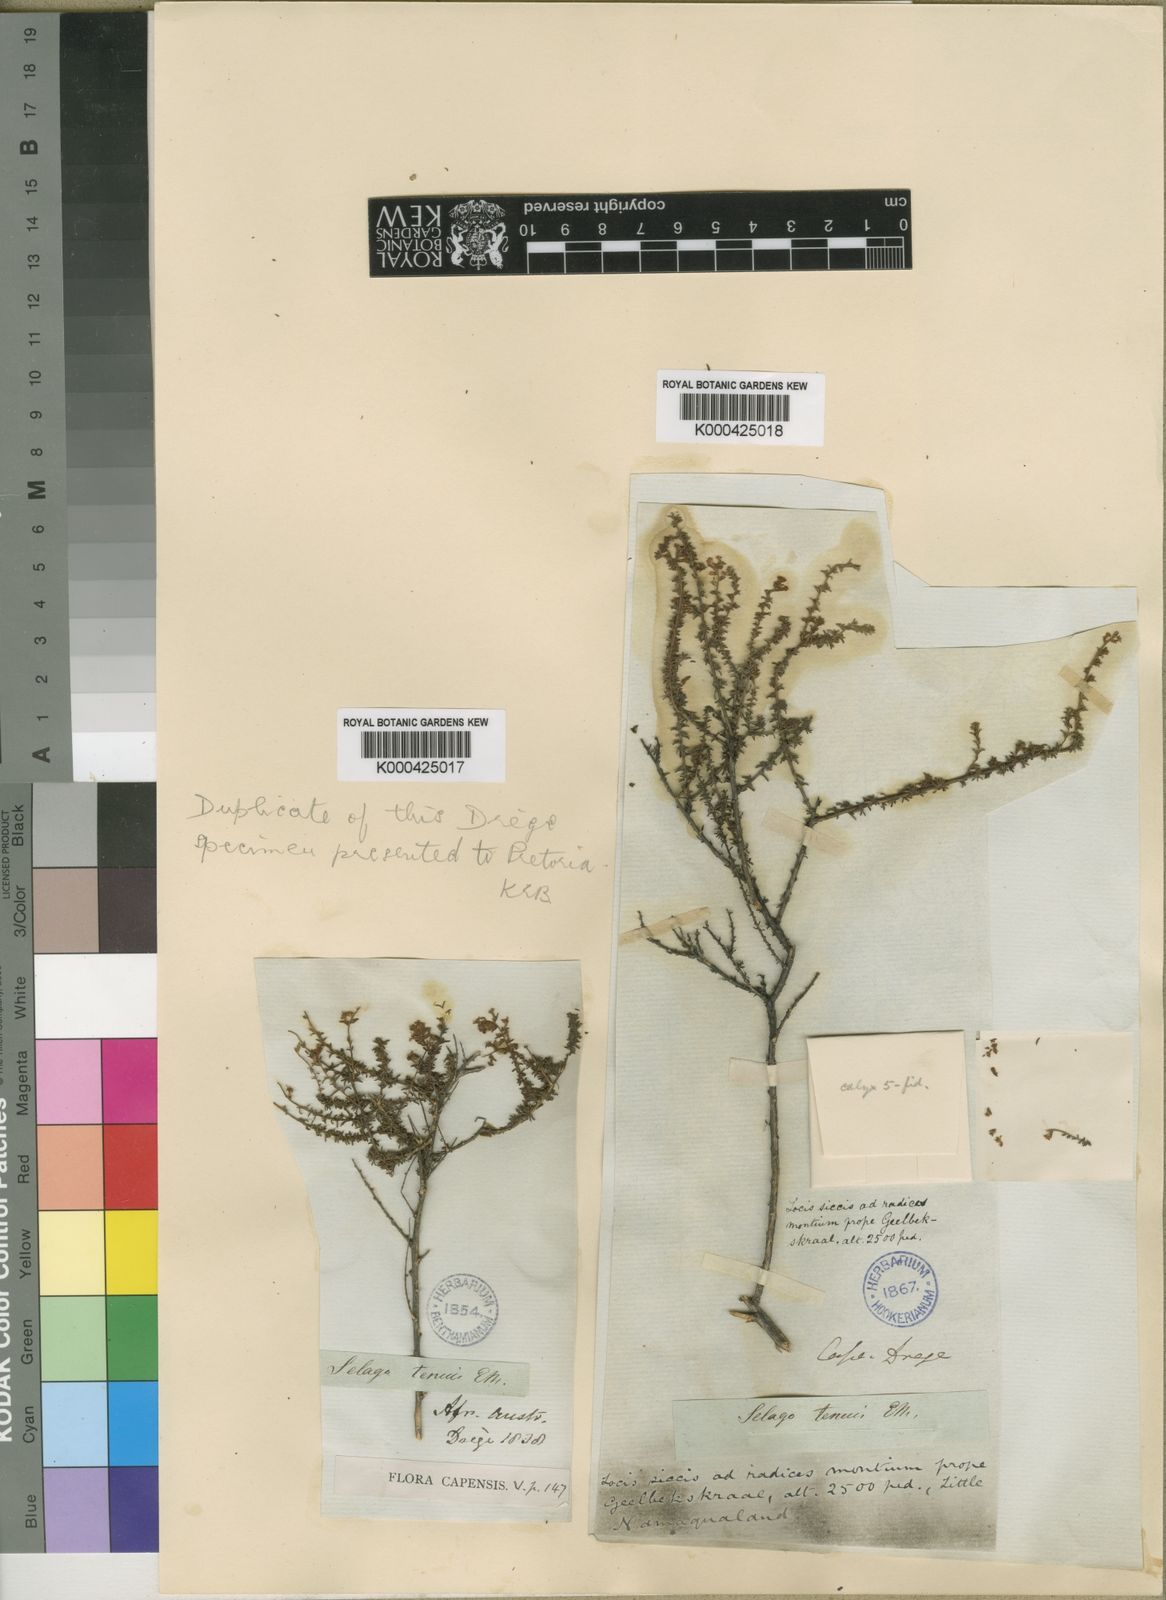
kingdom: Plantae
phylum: Tracheophyta
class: Magnoliopsida
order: Lamiales
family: Scrophulariaceae
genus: Selago
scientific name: Selago tenuis
